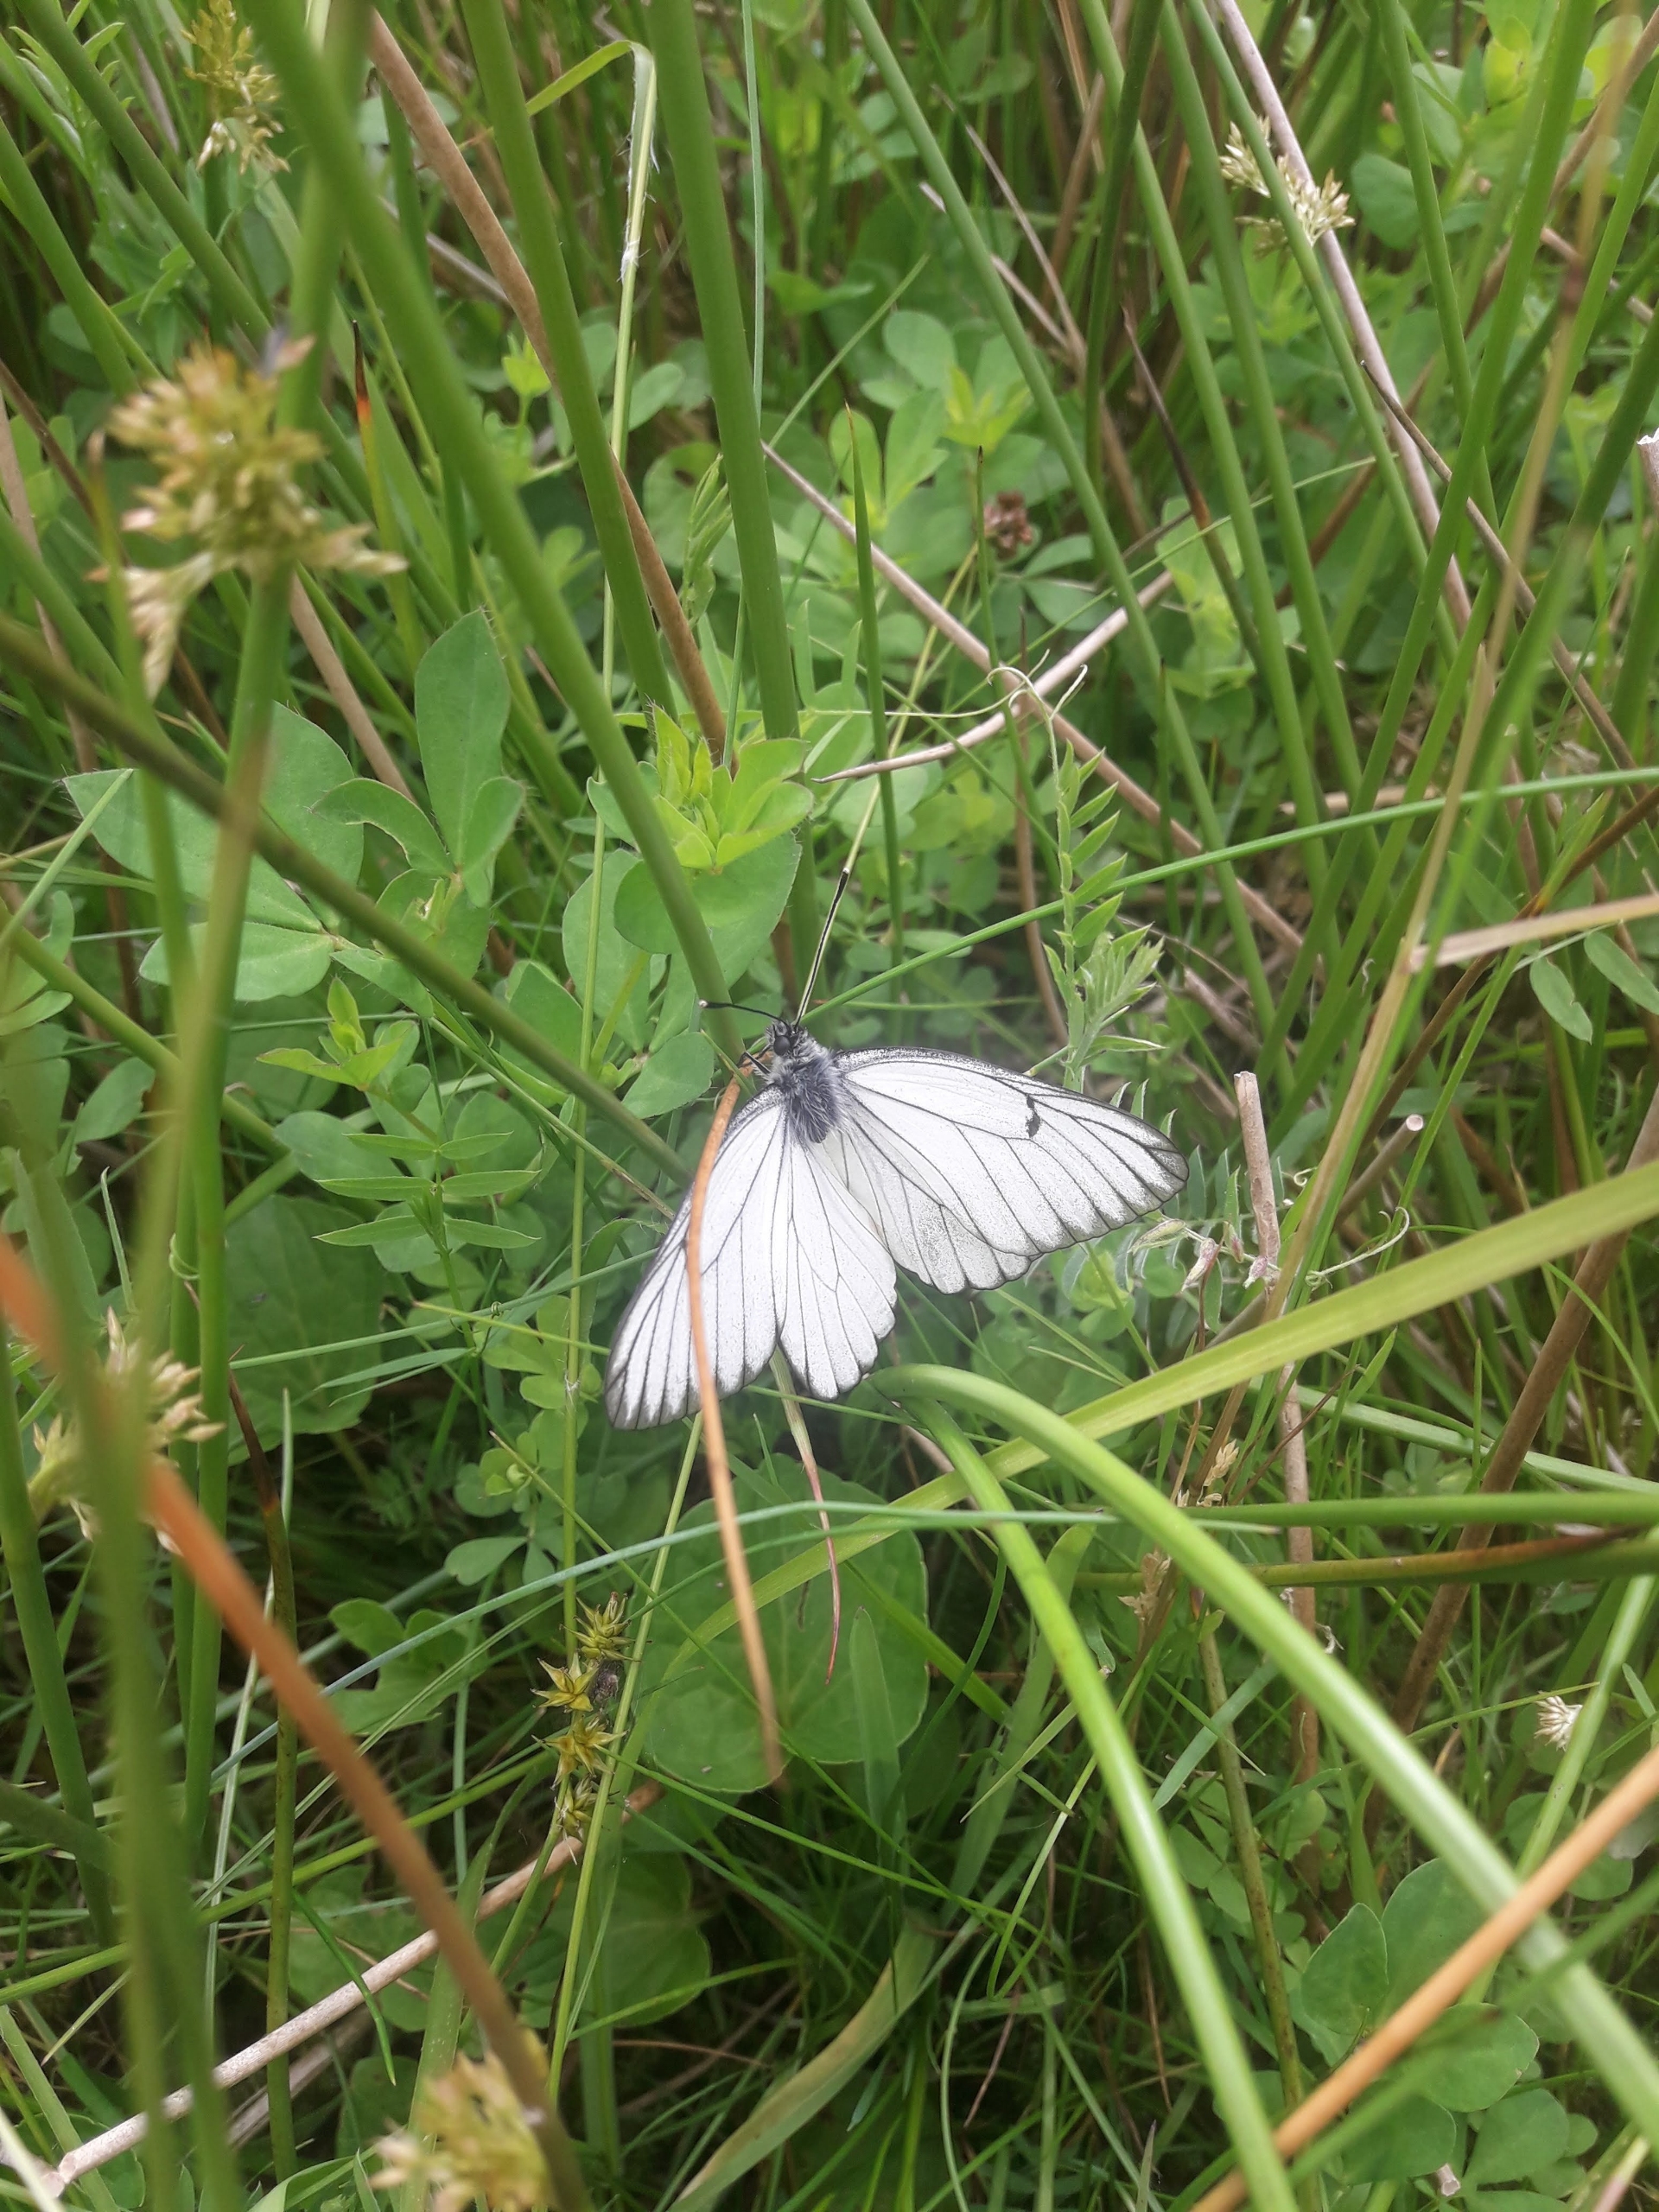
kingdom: Animalia
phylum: Arthropoda
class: Insecta
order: Lepidoptera
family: Pieridae
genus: Aporia
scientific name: Aporia crataegi
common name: Sortåret hvidvinge
